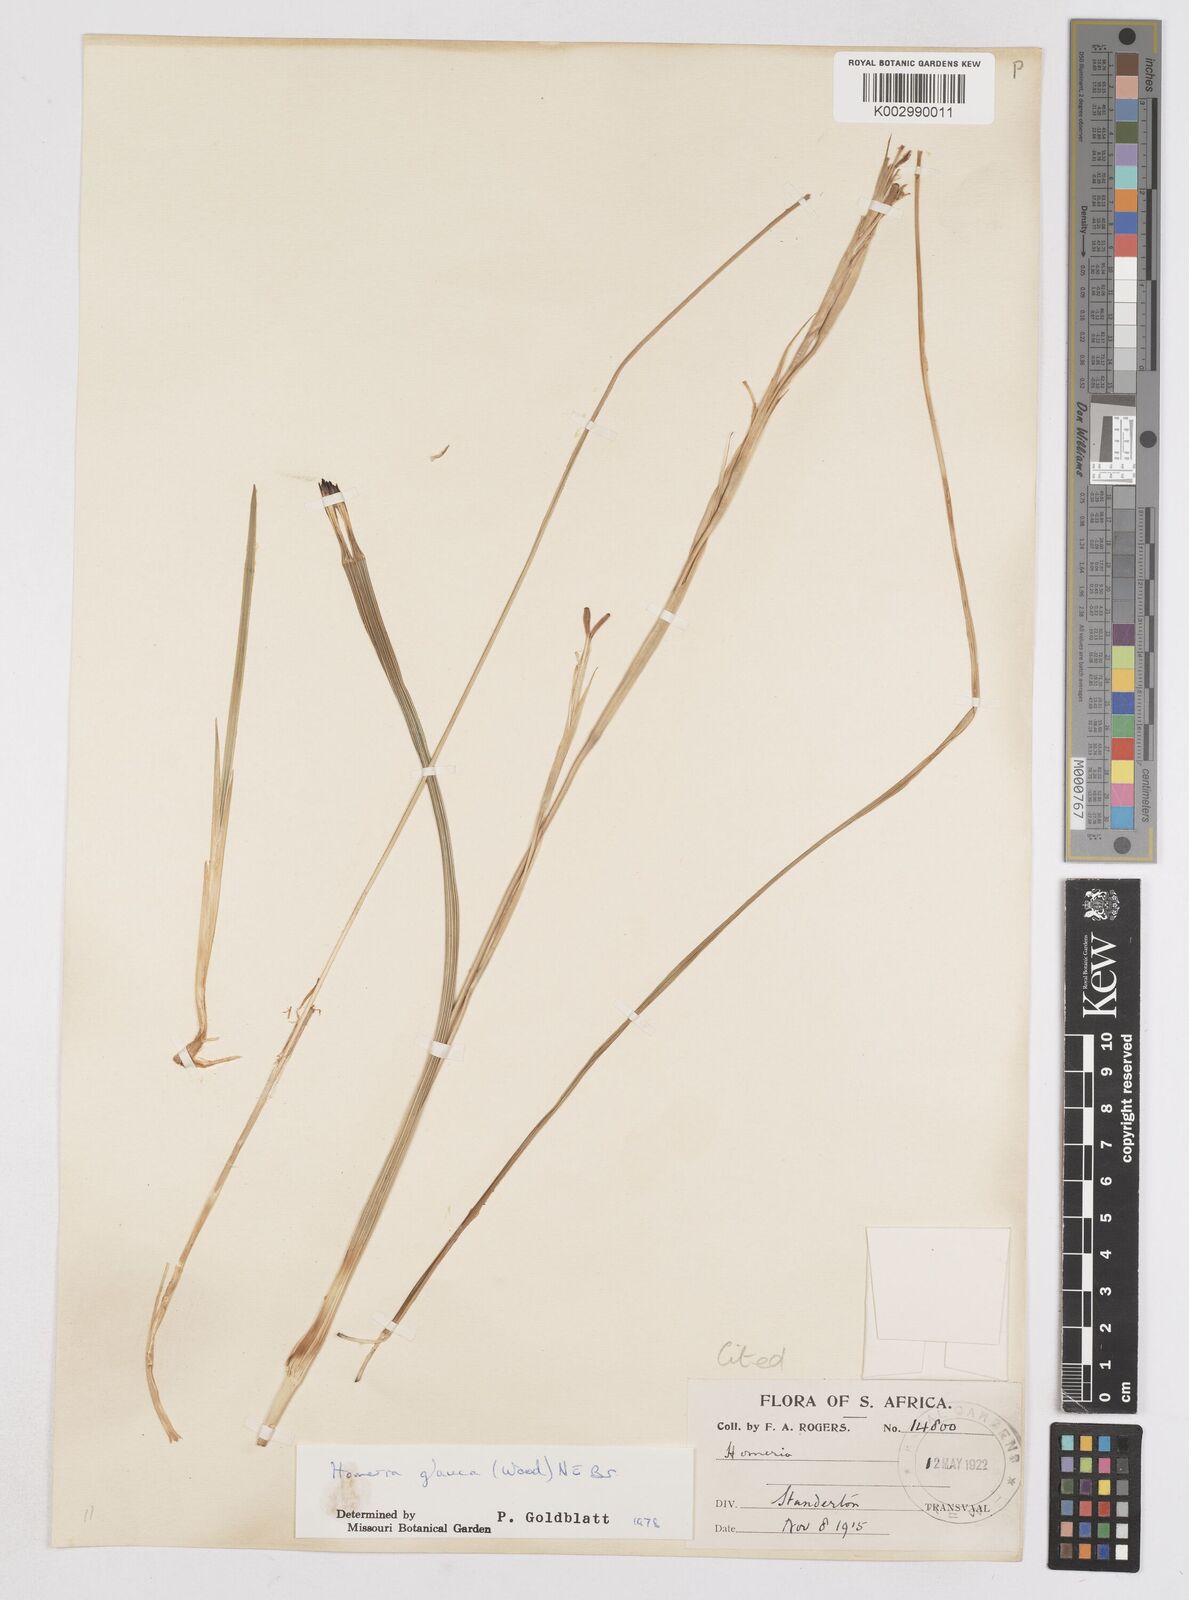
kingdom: Plantae
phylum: Tracheophyta
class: Liliopsida
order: Asparagales
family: Iridaceae
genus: Moraea
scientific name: Moraea pallida
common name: Yellow tulp
